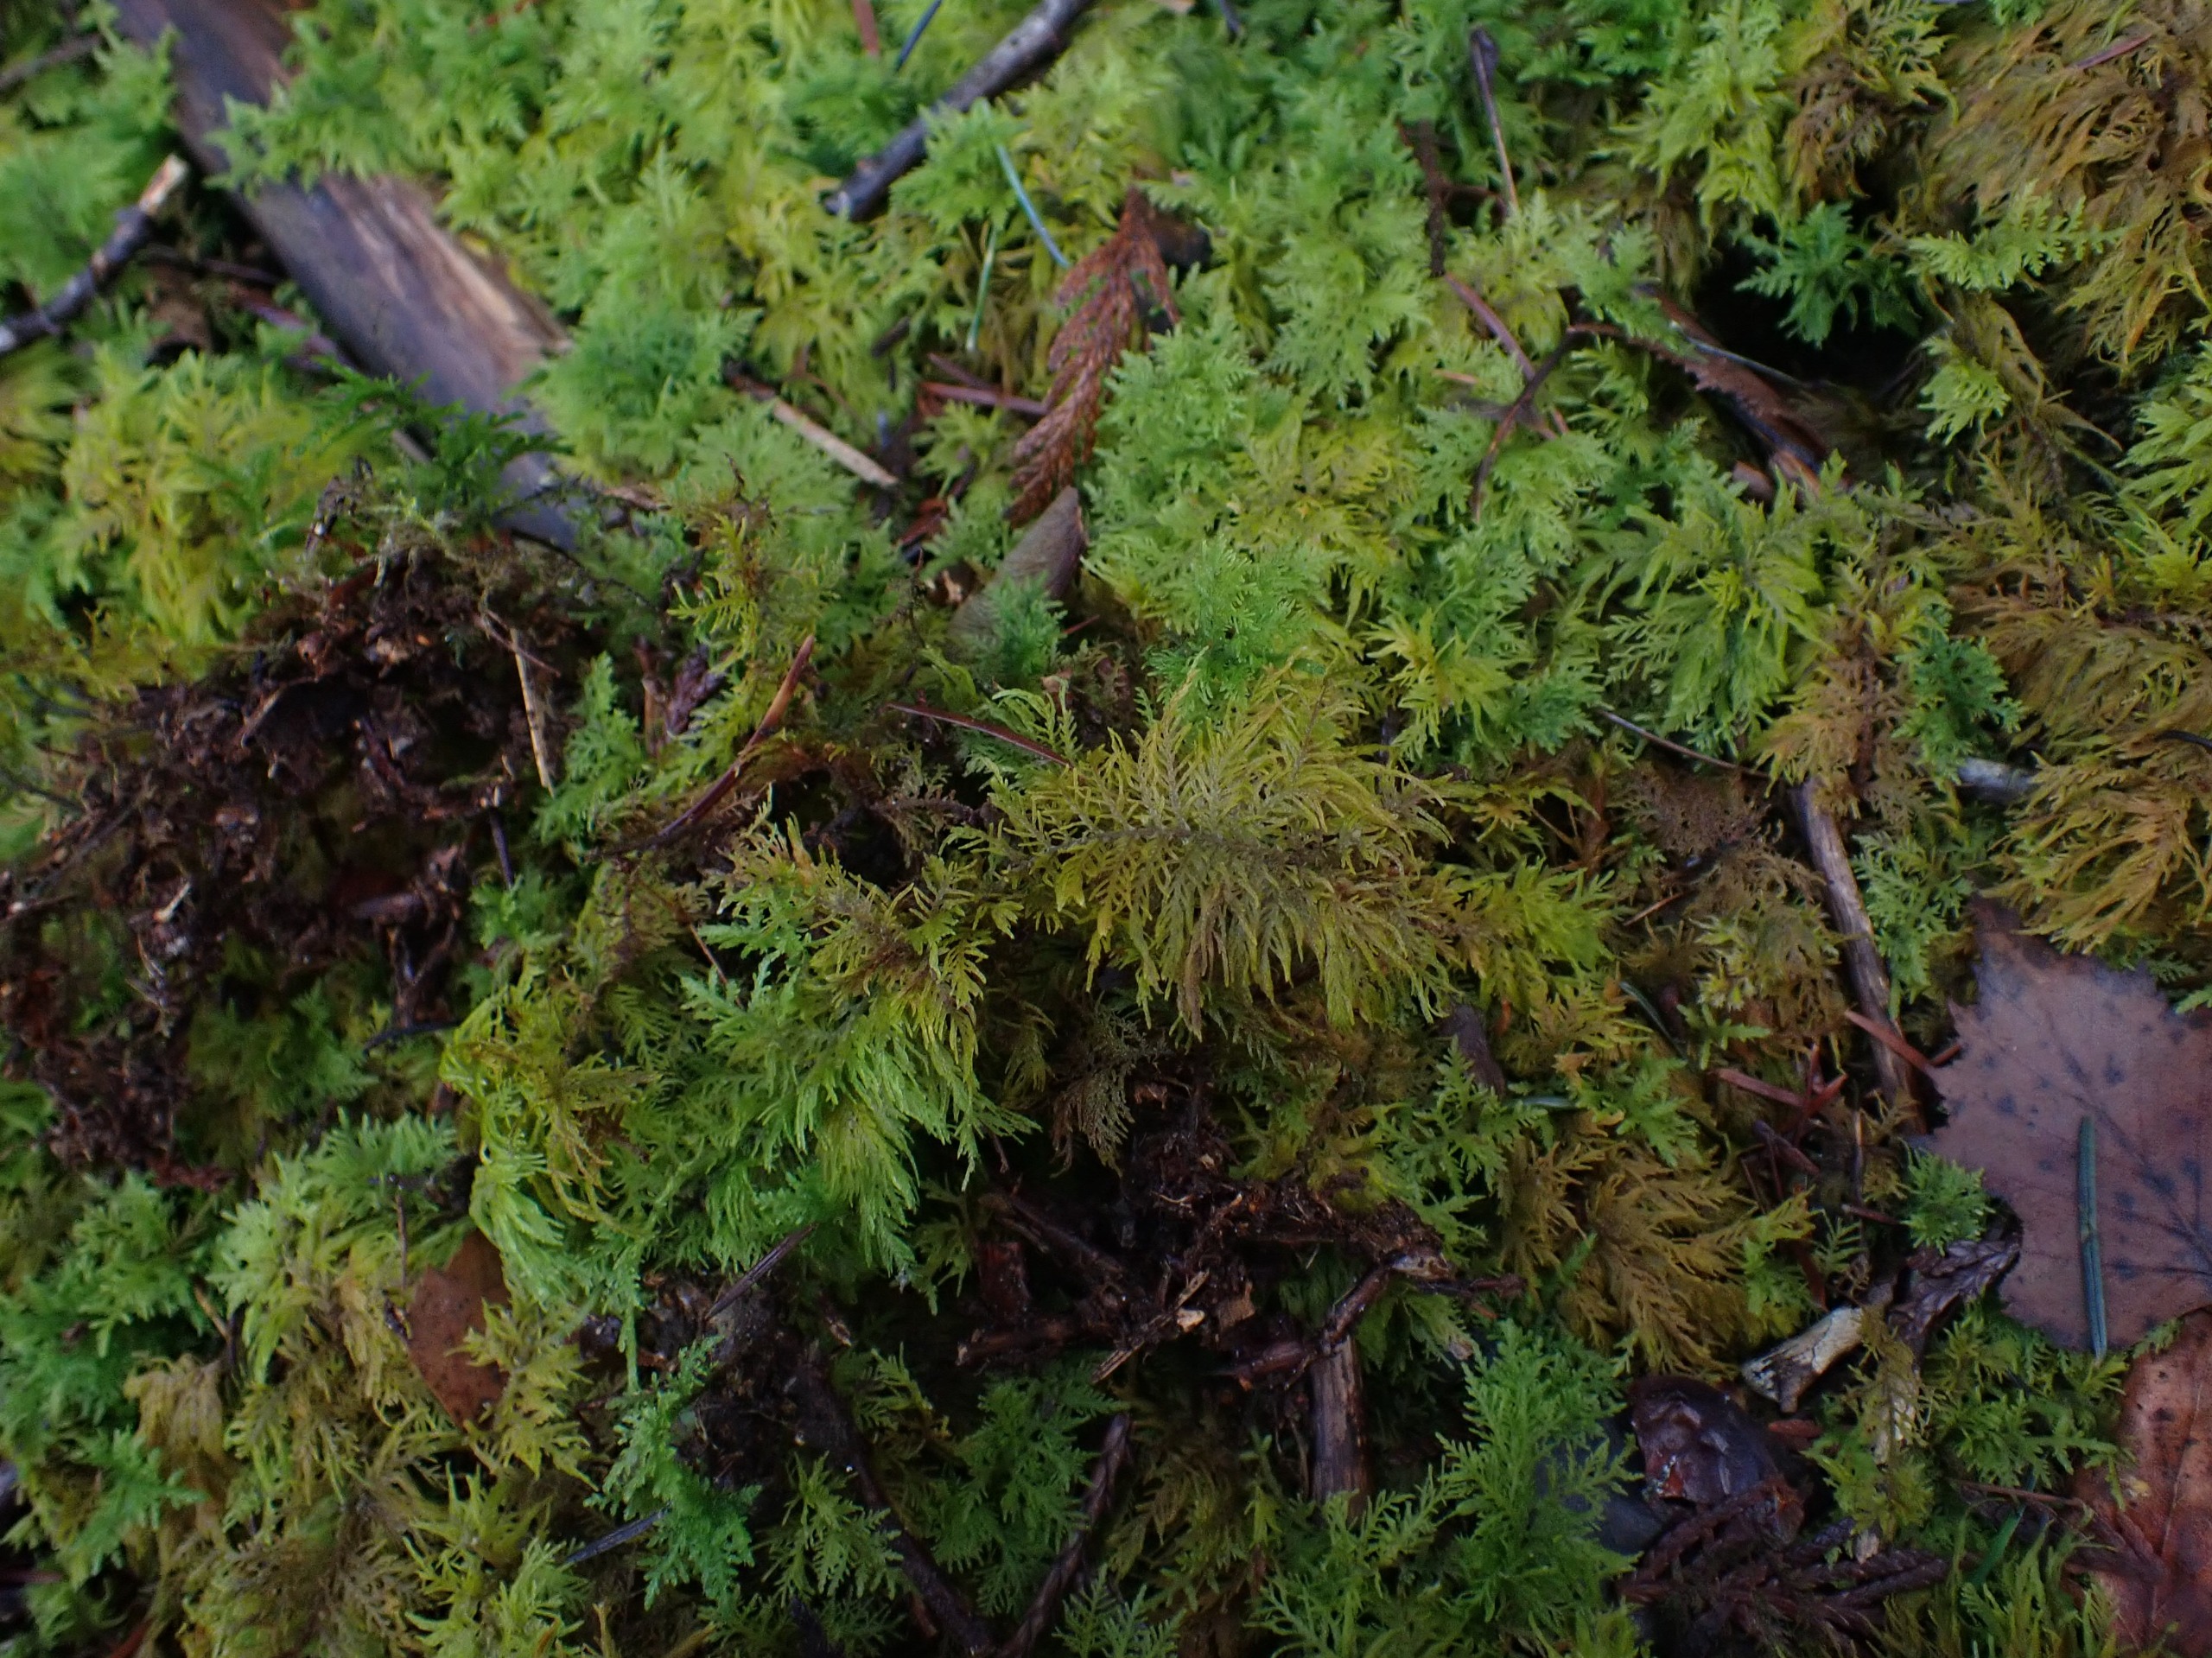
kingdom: Plantae
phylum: Bryophyta
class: Bryopsida
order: Hypnales
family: Thuidiaceae
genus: Thuidium
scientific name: Thuidium tamariscinum
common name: Pryd-bregnemos
